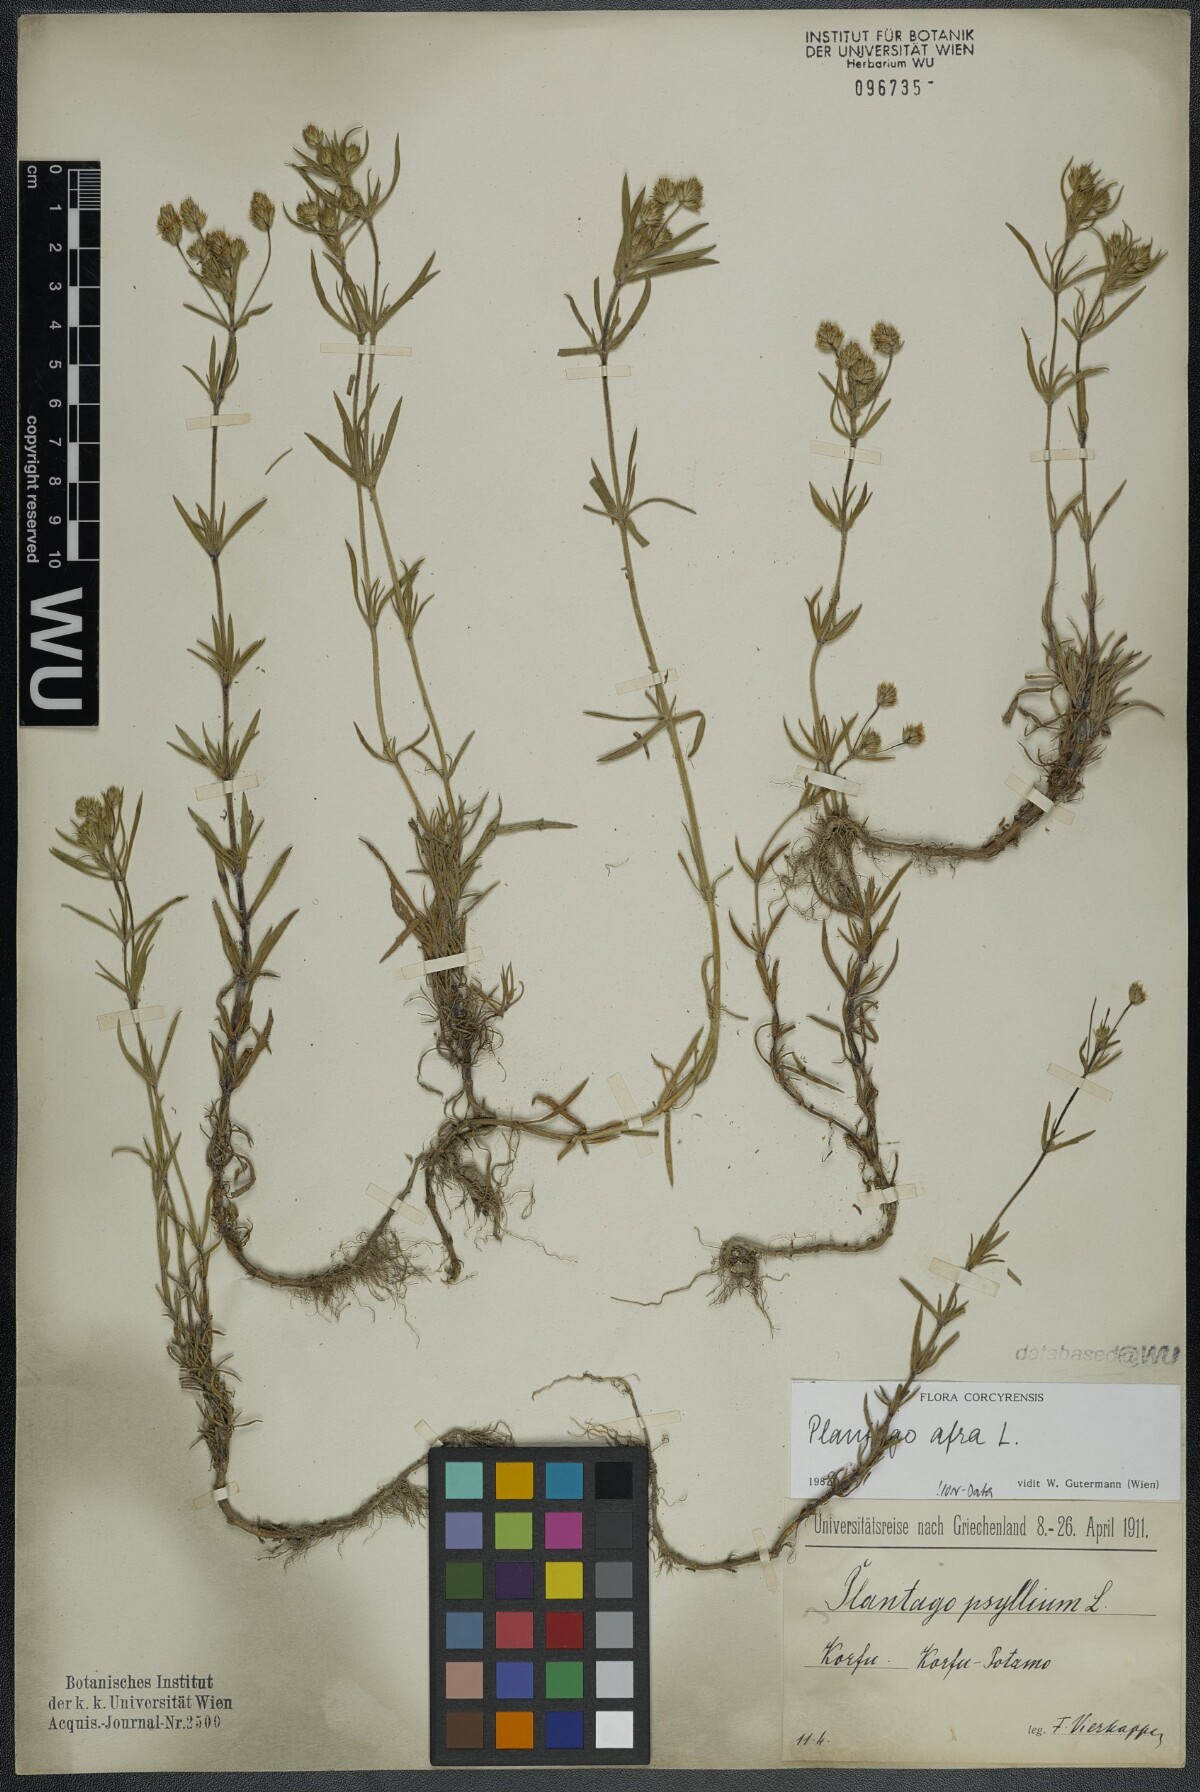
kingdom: Plantae
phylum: Tracheophyta
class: Magnoliopsida
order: Lamiales
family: Plantaginaceae
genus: Plantago
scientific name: Plantago afra
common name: Glandular plantain
